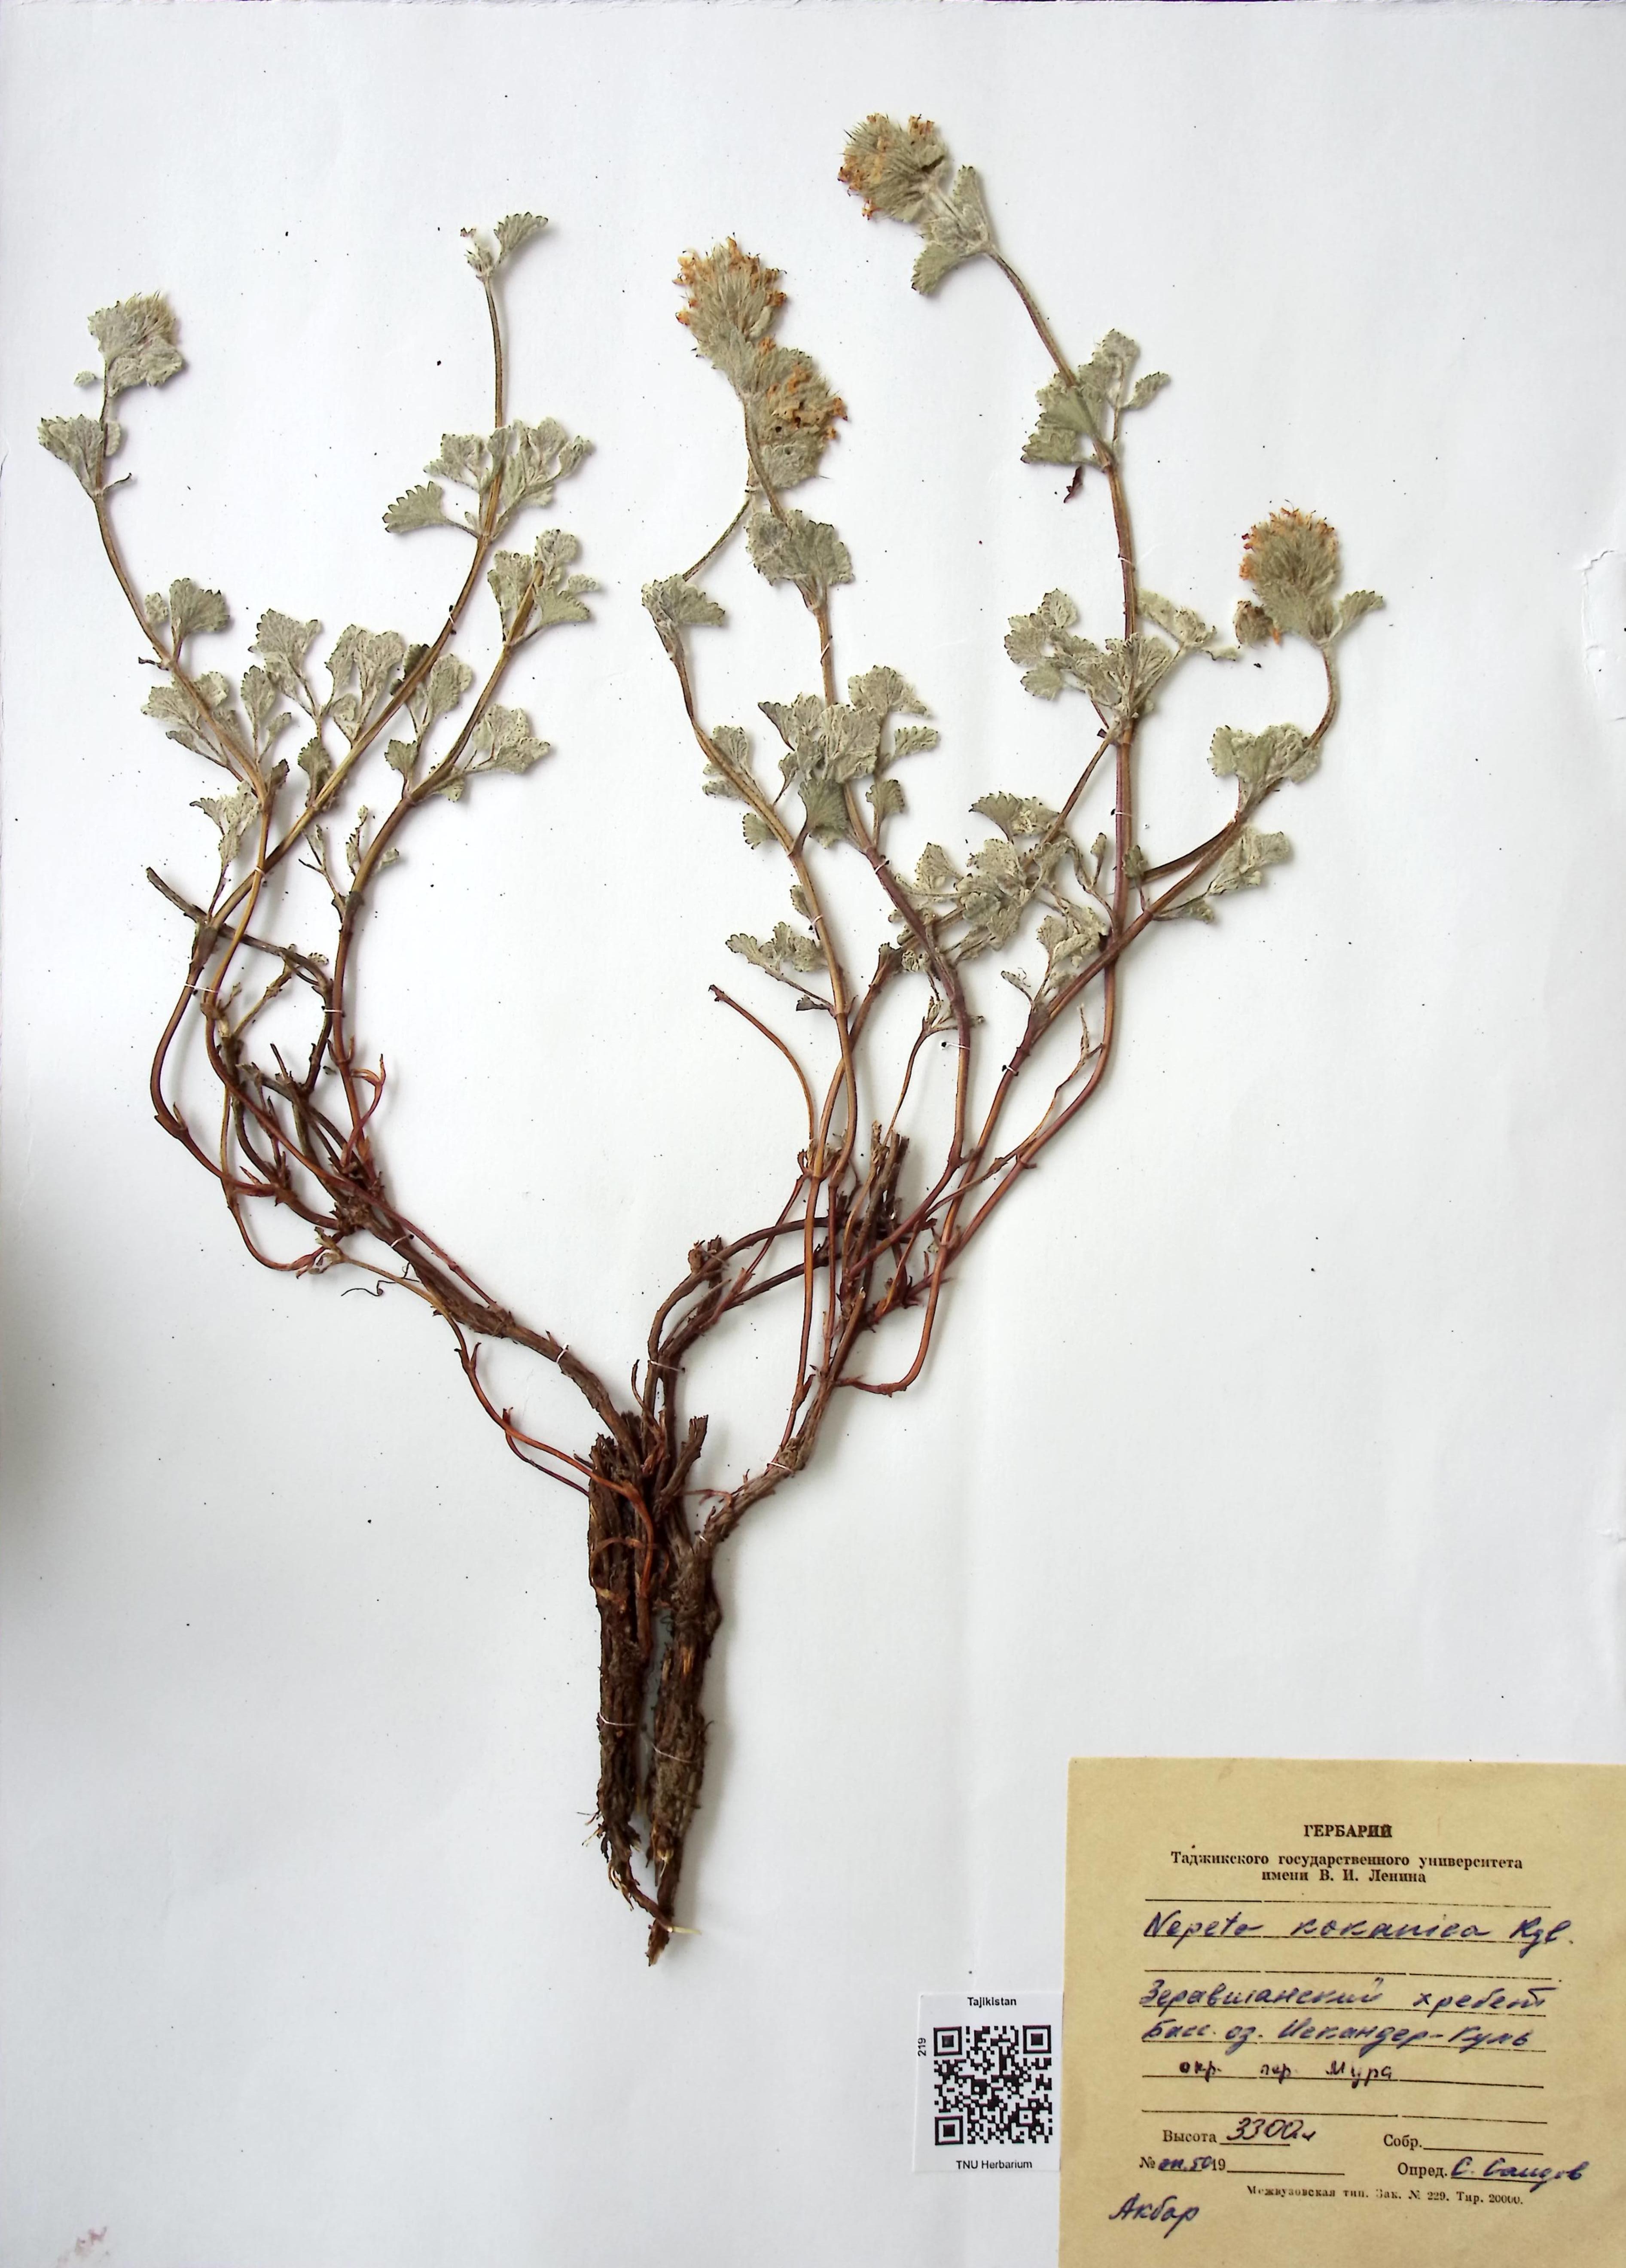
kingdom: Plantae
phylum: Tracheophyta
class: Magnoliopsida
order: Lamiales
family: Lamiaceae
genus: Nepeta
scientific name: Nepeta kokanica
